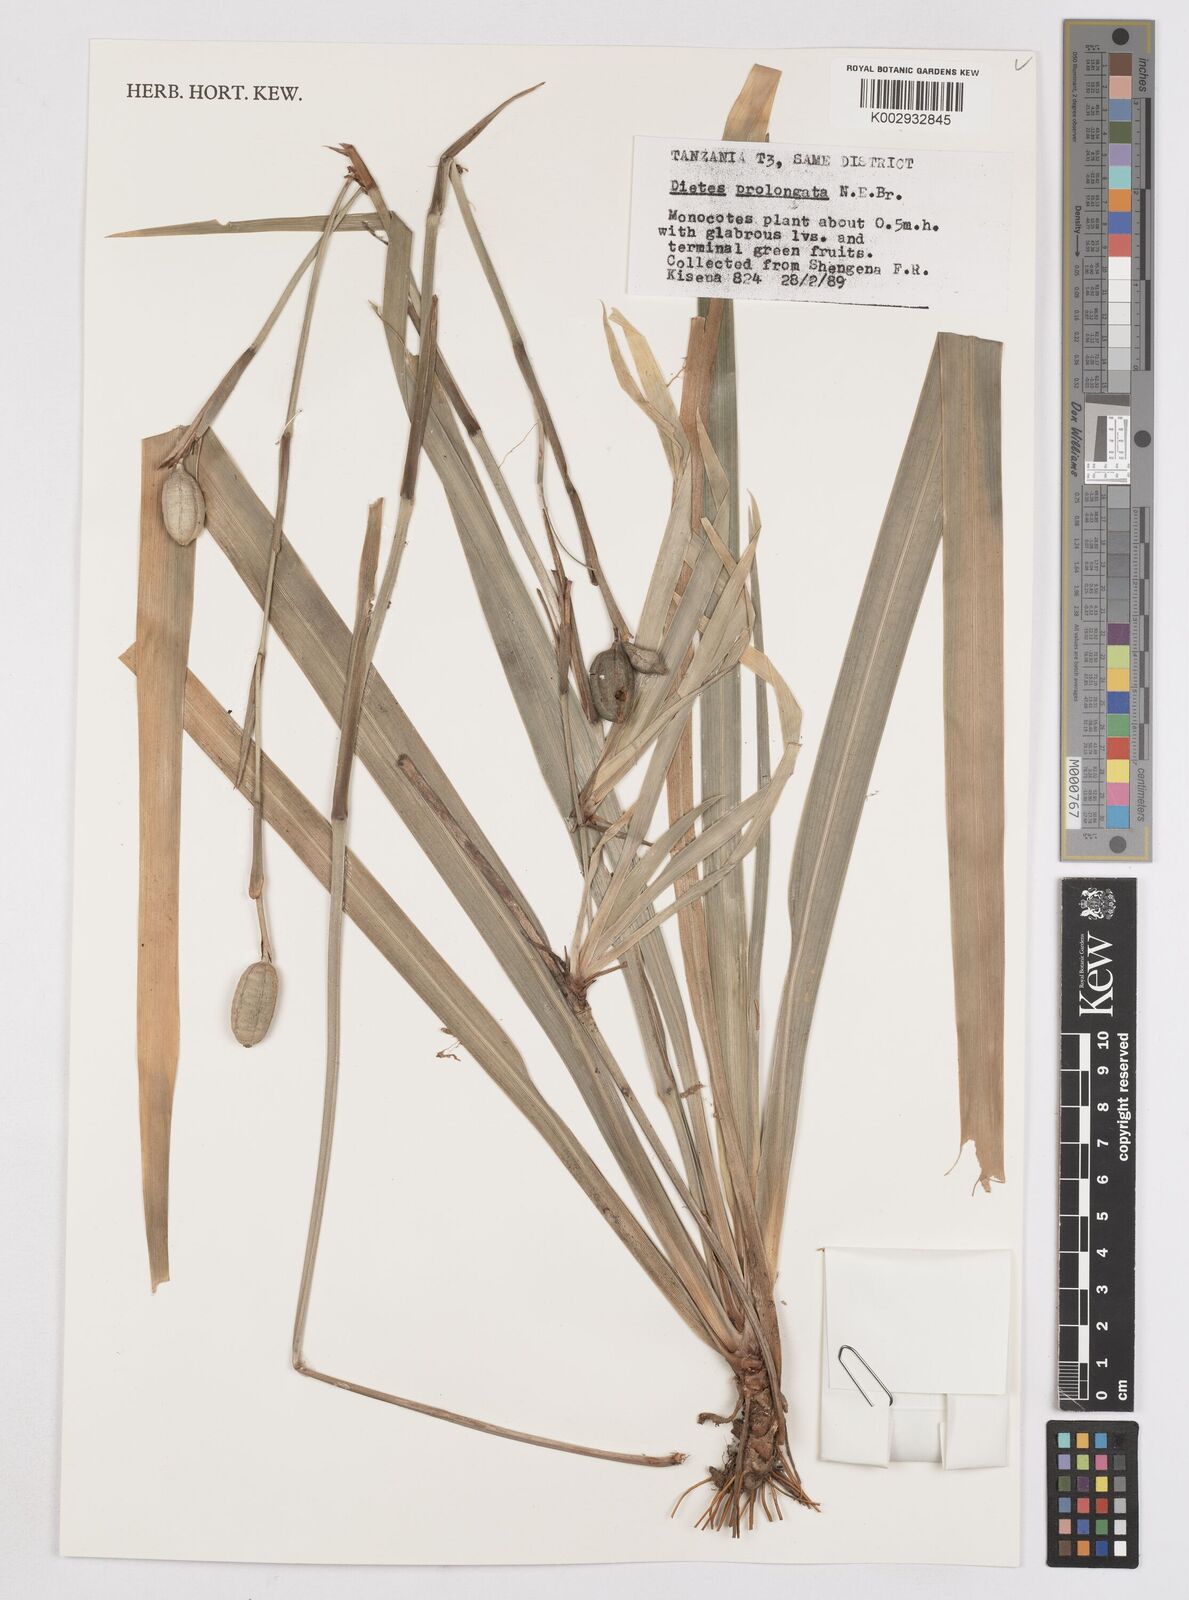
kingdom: Plantae
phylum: Tracheophyta
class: Liliopsida
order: Asparagales
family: Iridaceae
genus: Dietes
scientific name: Dietes iridioides
